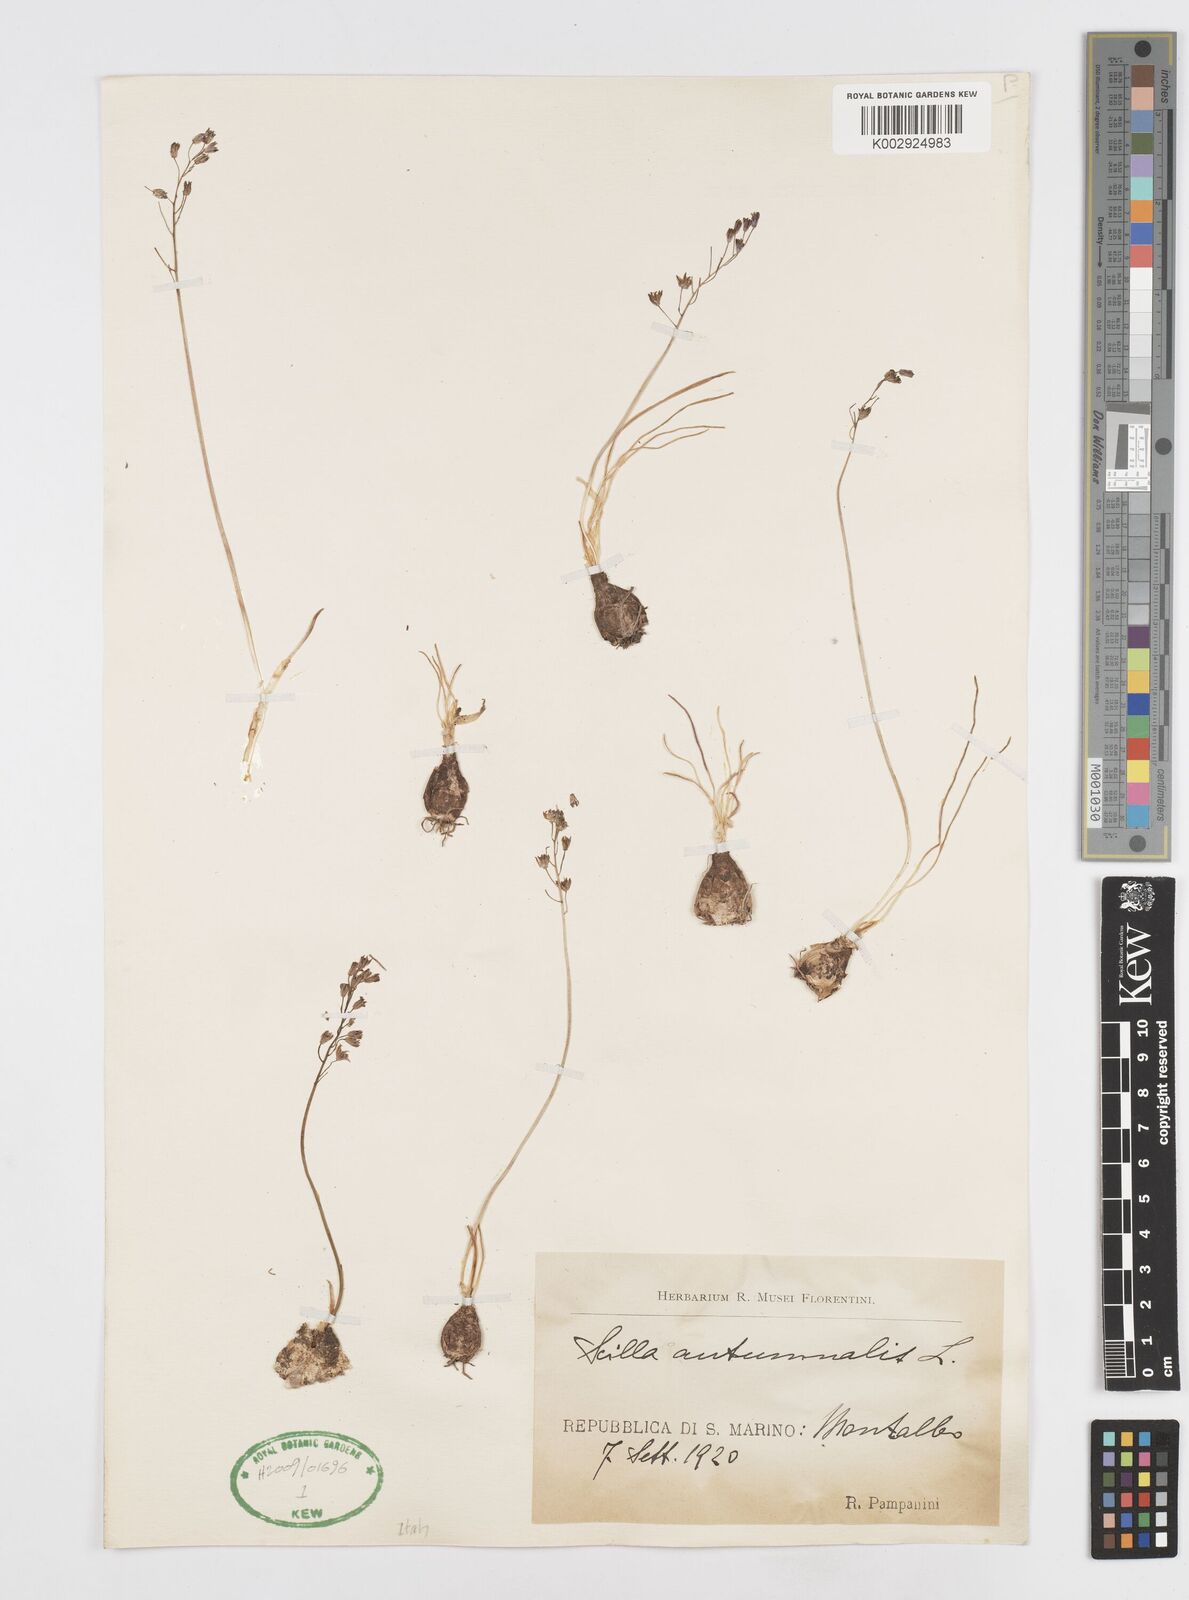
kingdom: Plantae
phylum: Tracheophyta
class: Liliopsida
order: Asparagales
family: Asparagaceae
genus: Prospero
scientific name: Prospero autumnale
